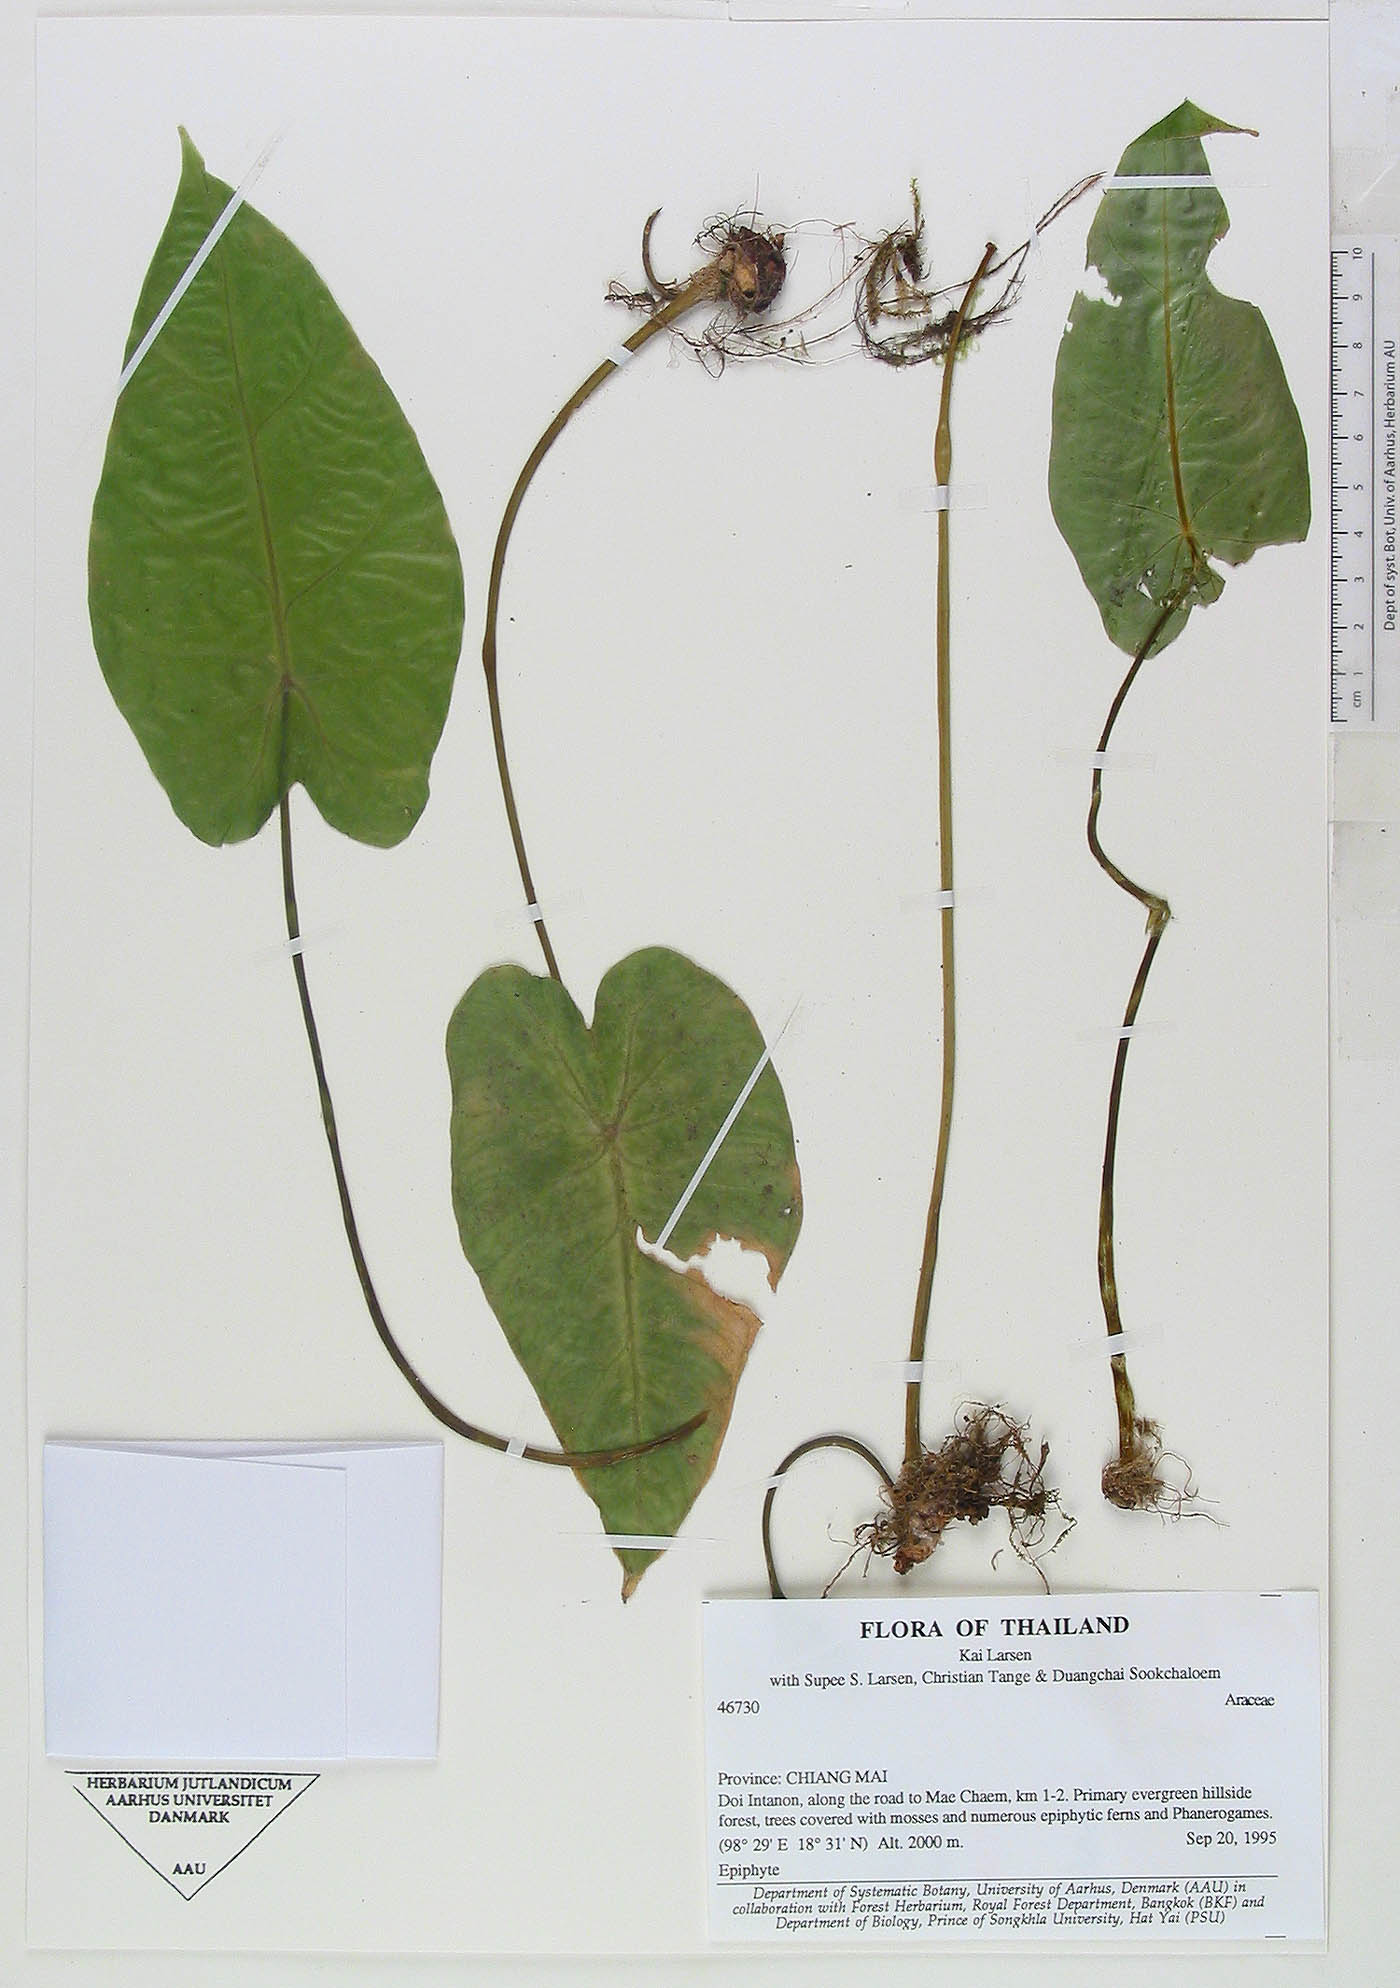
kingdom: Plantae
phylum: Tracheophyta
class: Liliopsida
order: Alismatales
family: Araceae
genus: Remusatia
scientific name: Remusatia pumila
